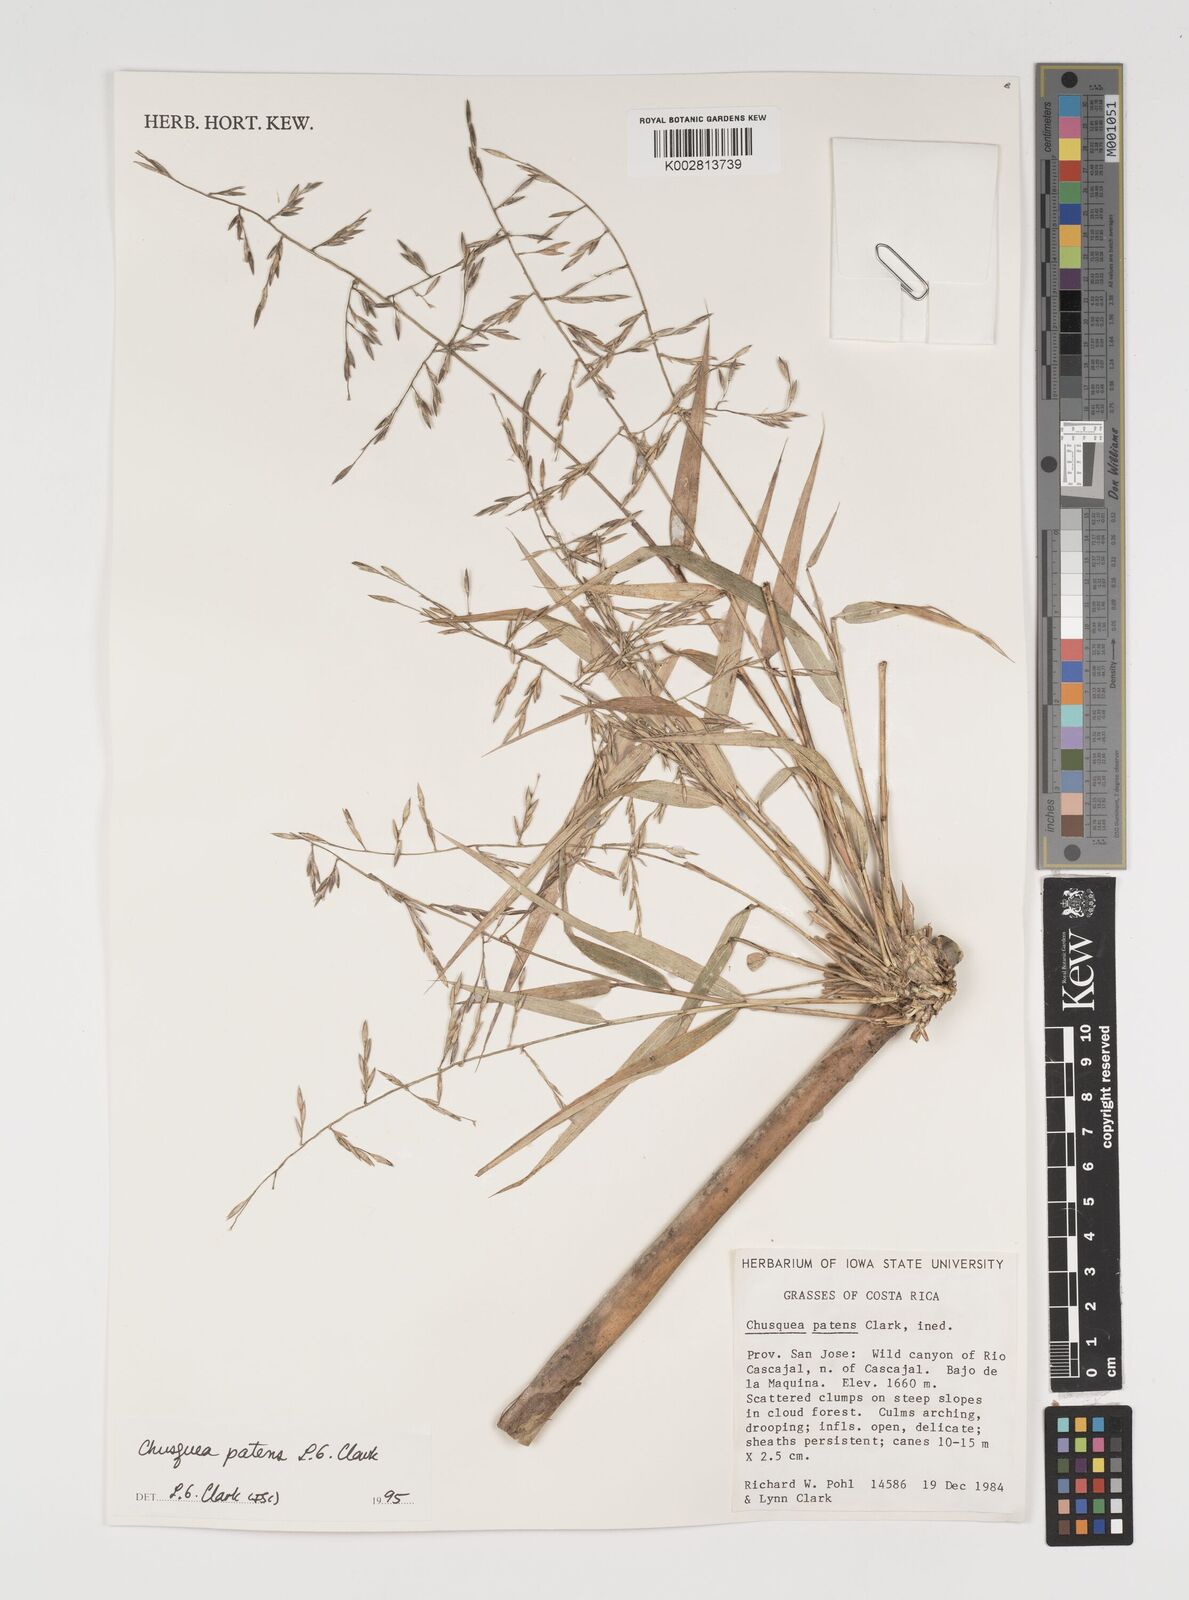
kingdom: Plantae
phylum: Tracheophyta
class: Liliopsida
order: Poales
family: Poaceae
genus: Chusquea
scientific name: Chusquea patens
